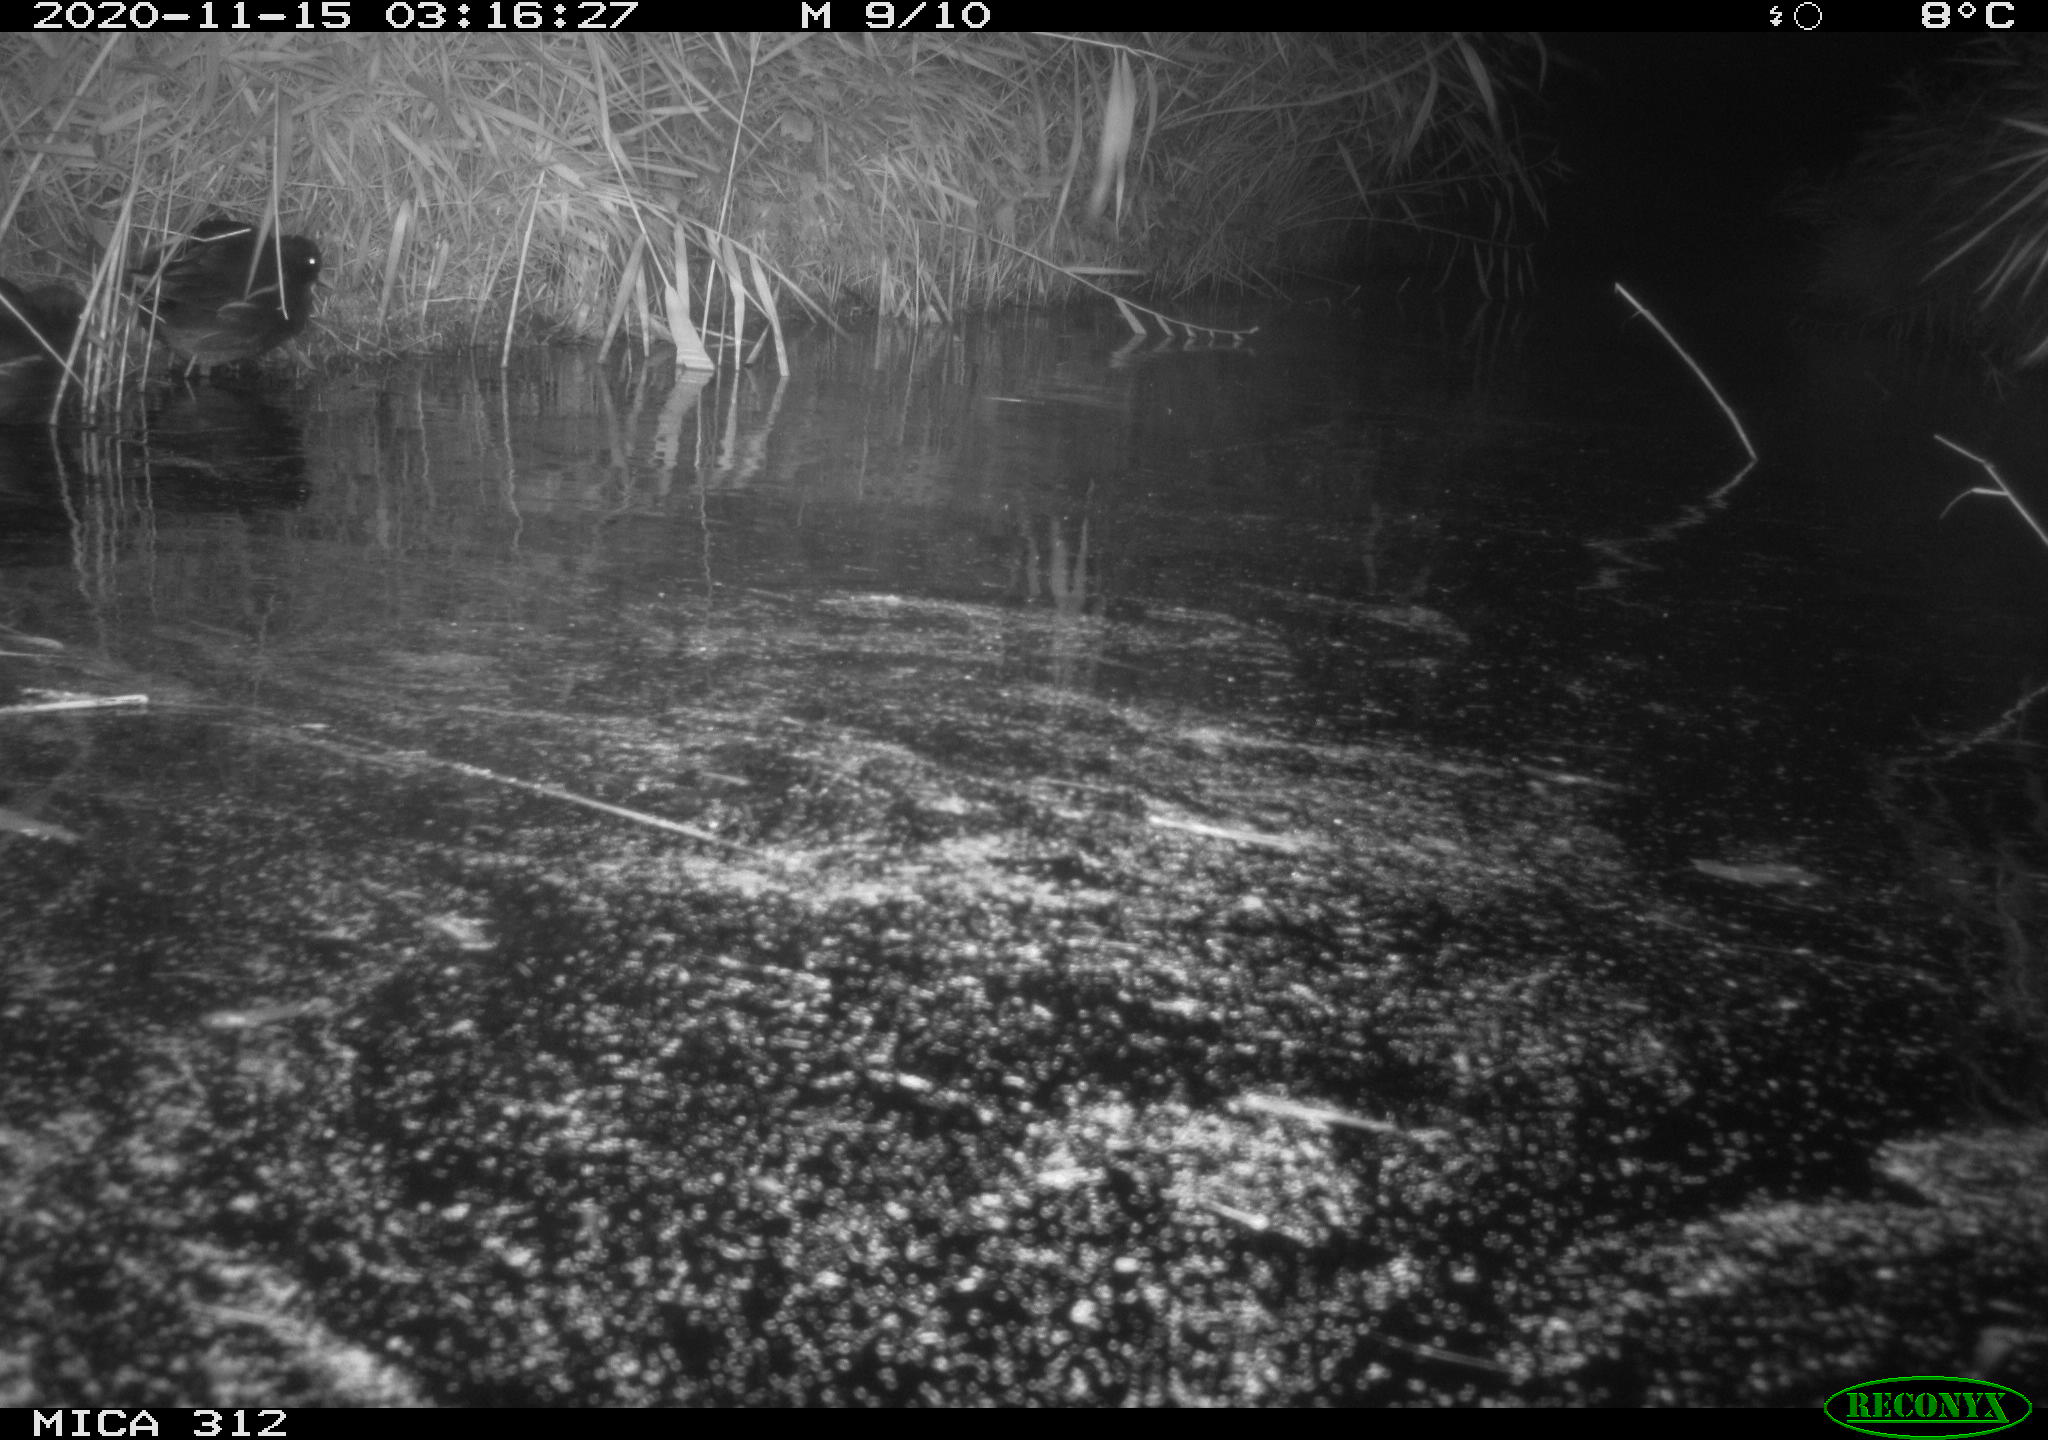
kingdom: Animalia
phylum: Chordata
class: Aves
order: Gruiformes
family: Rallidae
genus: Gallinula
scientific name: Gallinula chloropus
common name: Common moorhen
